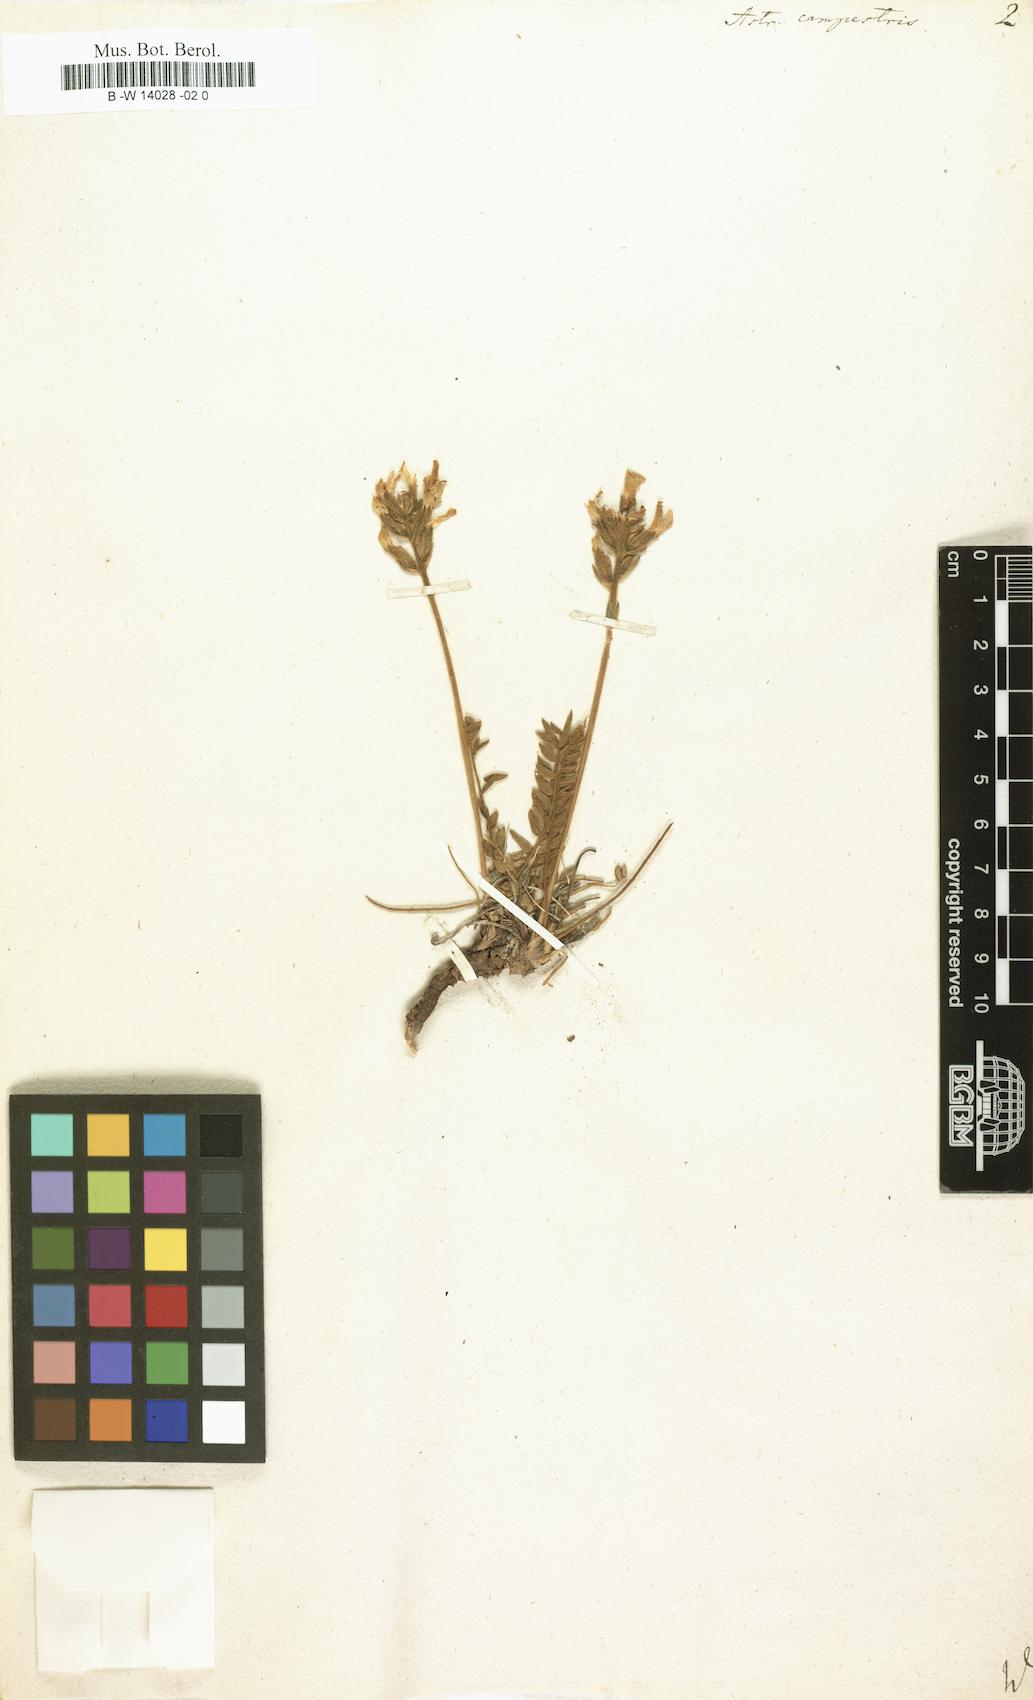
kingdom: Plantae
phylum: Tracheophyta
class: Magnoliopsida
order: Fabales
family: Fabaceae
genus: Oxytropis
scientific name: Oxytropis campestris
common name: Field locoweed
